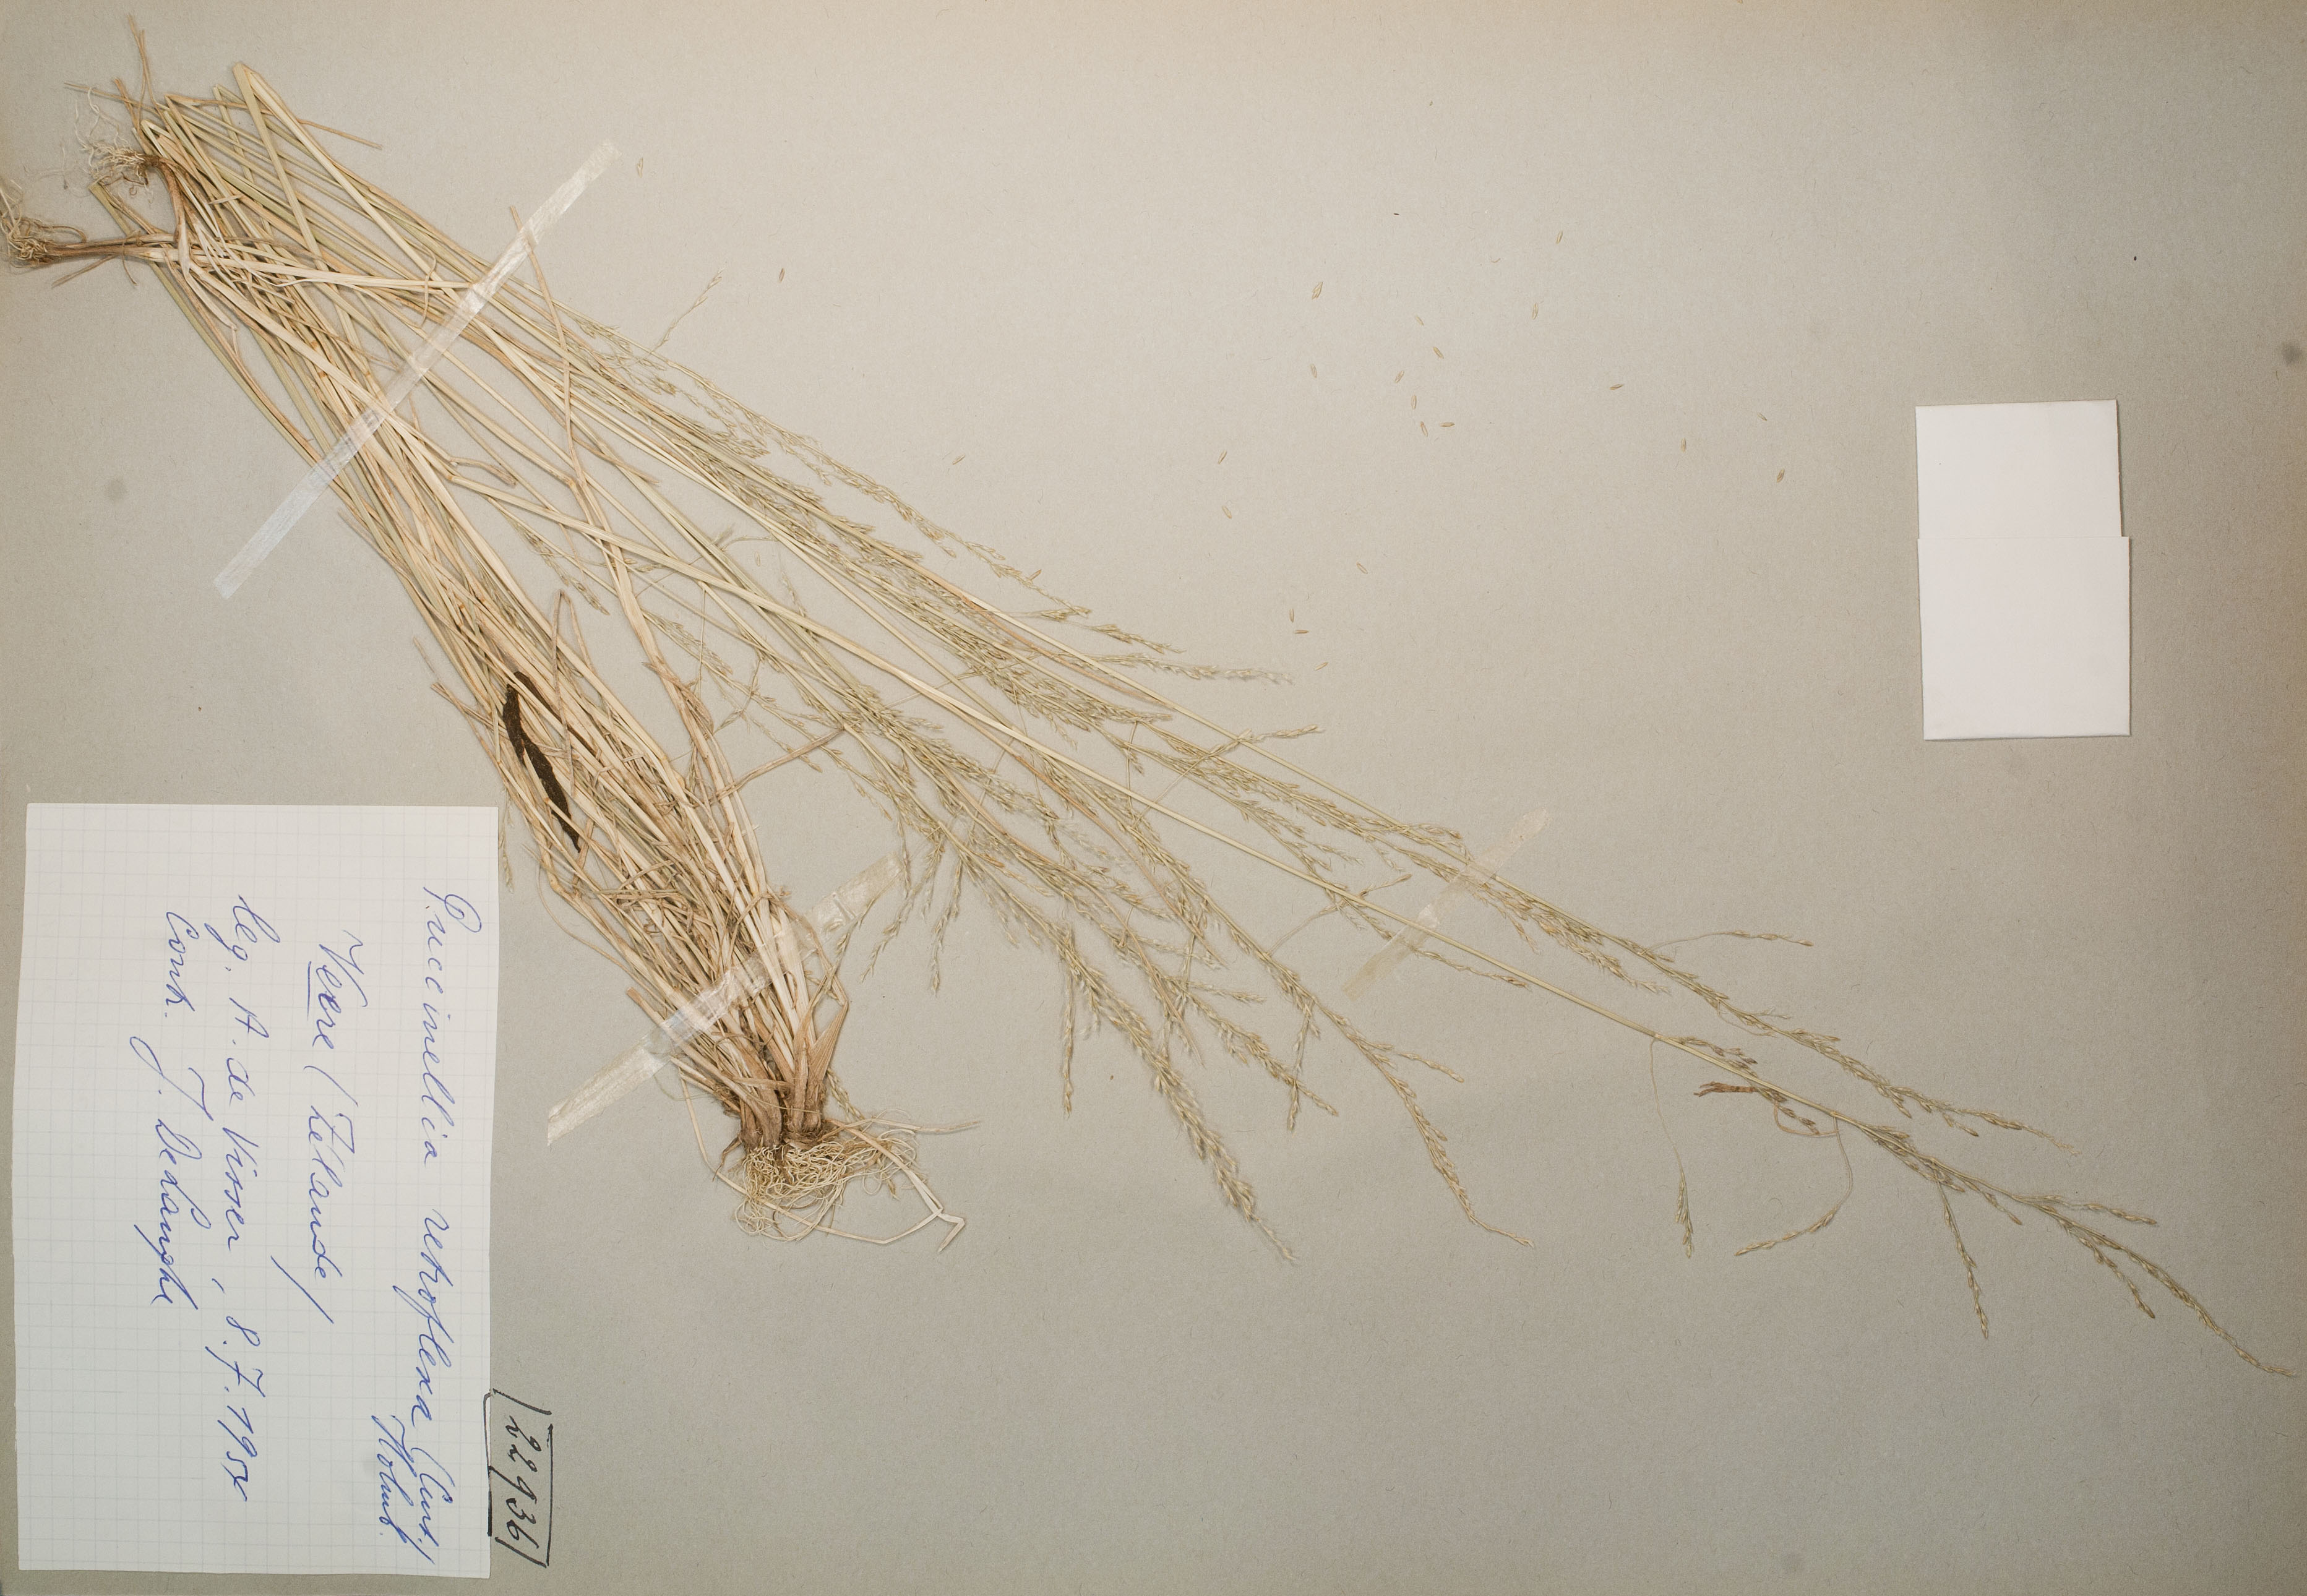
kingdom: Plantae
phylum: Tracheophyta
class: Liliopsida
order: Poales
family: Poaceae
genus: Puccinellia
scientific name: Puccinellia distans
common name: Weeping alkaligrass
